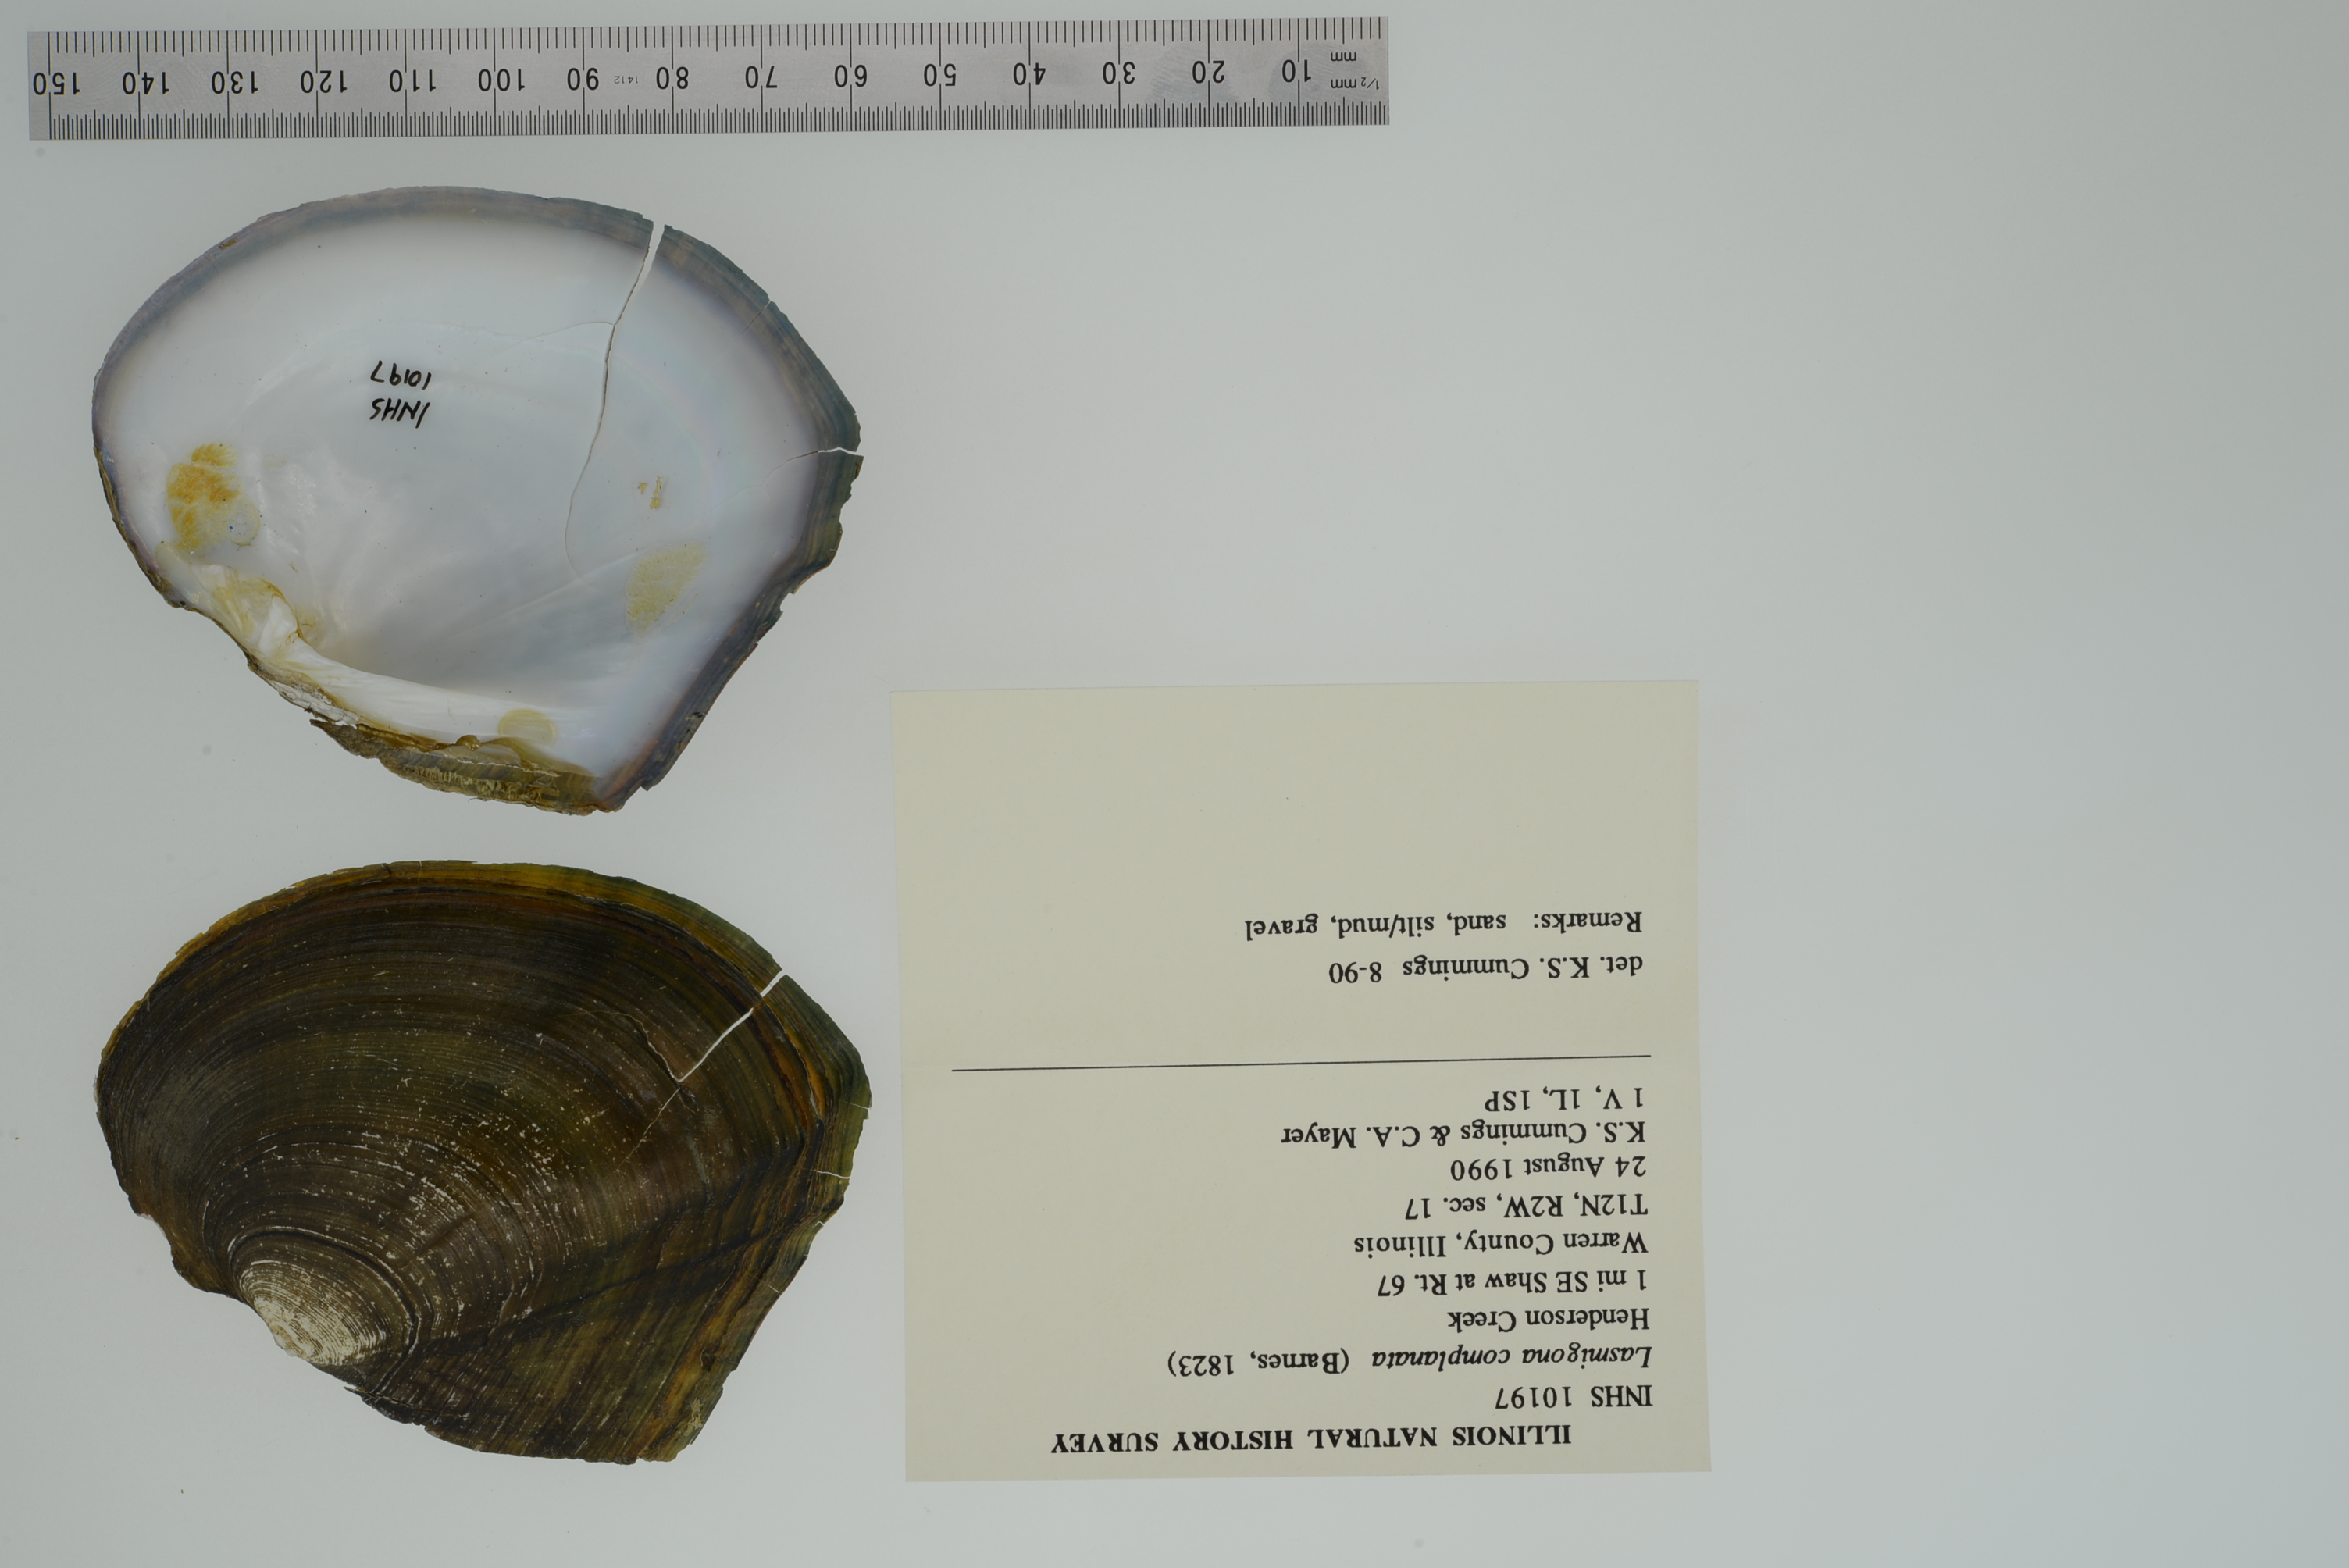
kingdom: Animalia
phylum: Mollusca
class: Bivalvia
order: Unionida
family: Unionidae
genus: Lasmigona
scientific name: Lasmigona complanata
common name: White heelsplitter
